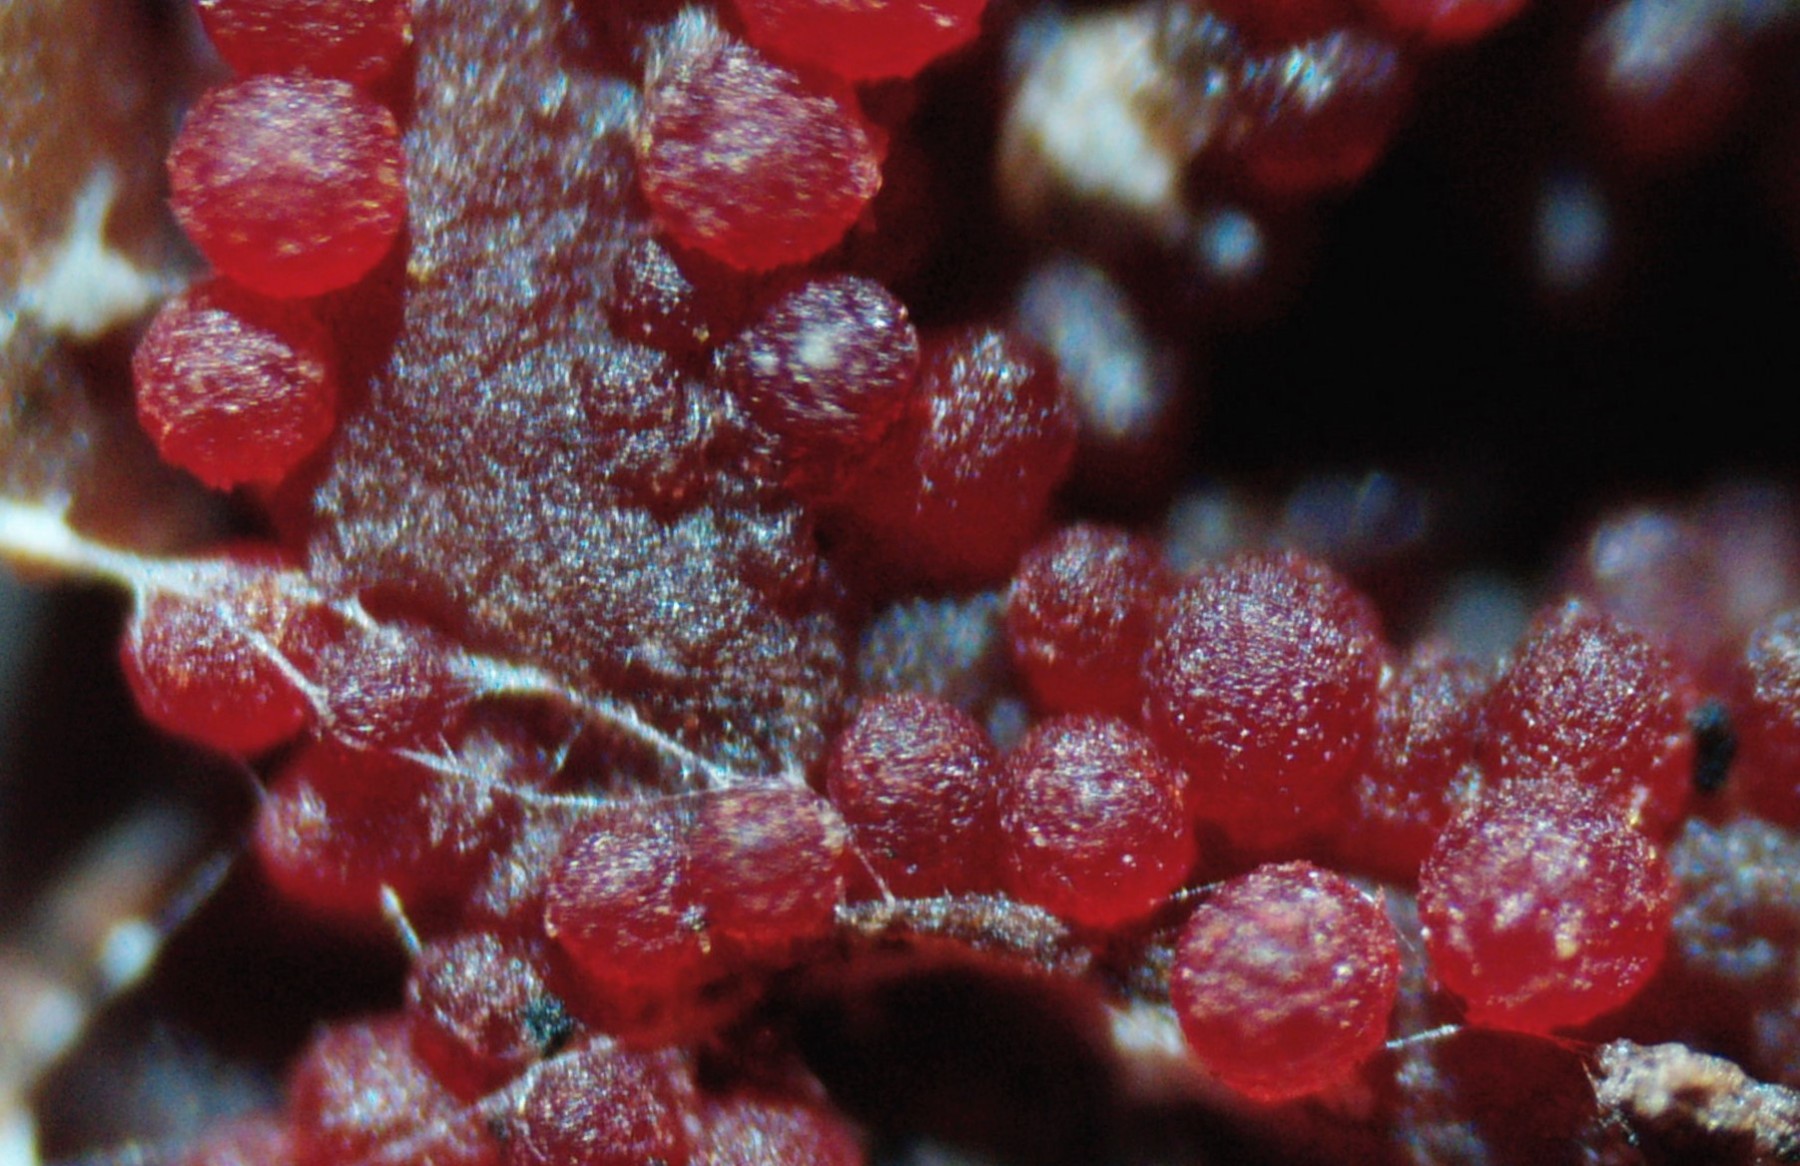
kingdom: Fungi
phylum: Ascomycota
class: Sordariomycetes
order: Hypocreales
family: Nectriaceae
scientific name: Nectriaceae
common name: cinnobersvampfamilien
